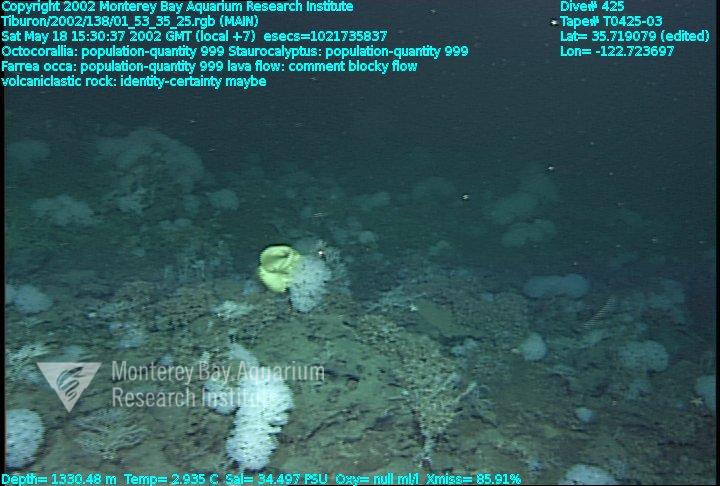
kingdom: Animalia
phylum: Porifera
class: Hexactinellida
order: Lyssacinosida
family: Rossellidae
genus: Staurocalyptus
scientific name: Staurocalyptus
